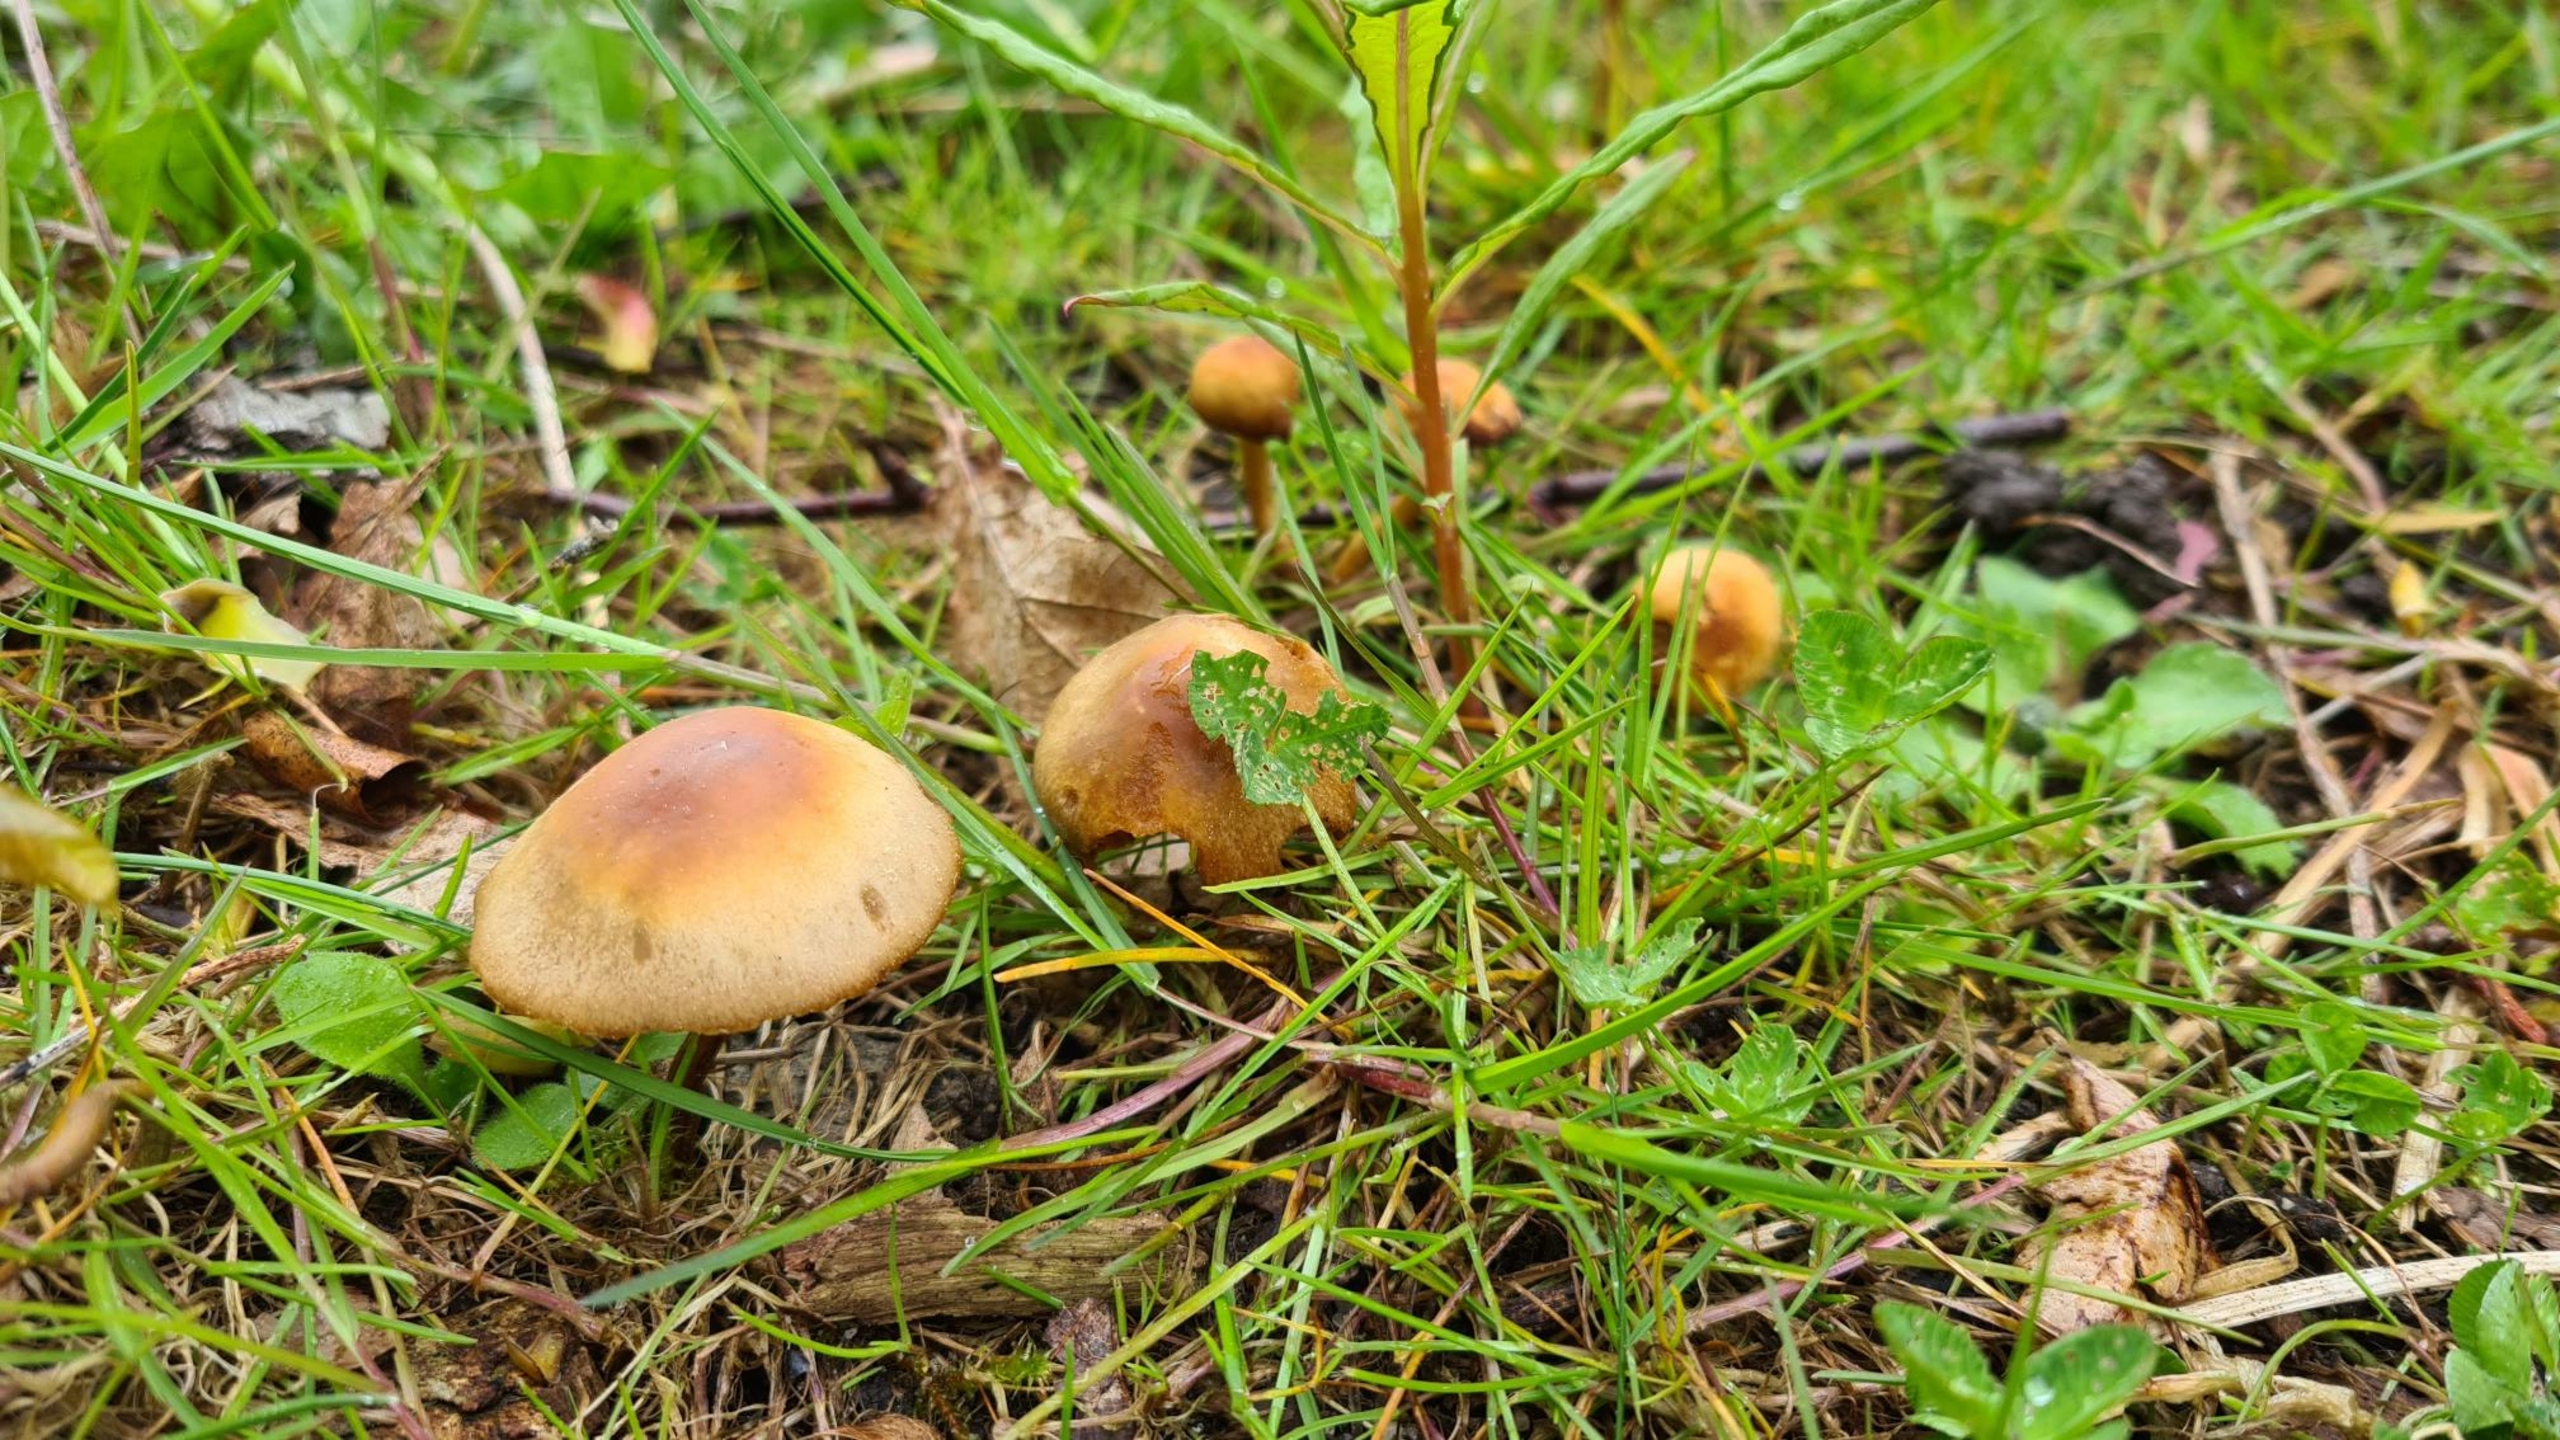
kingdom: Fungi
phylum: Basidiomycota
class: Agaricomycetes
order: Agaricales
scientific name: Agaricales
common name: Champignonordenen
